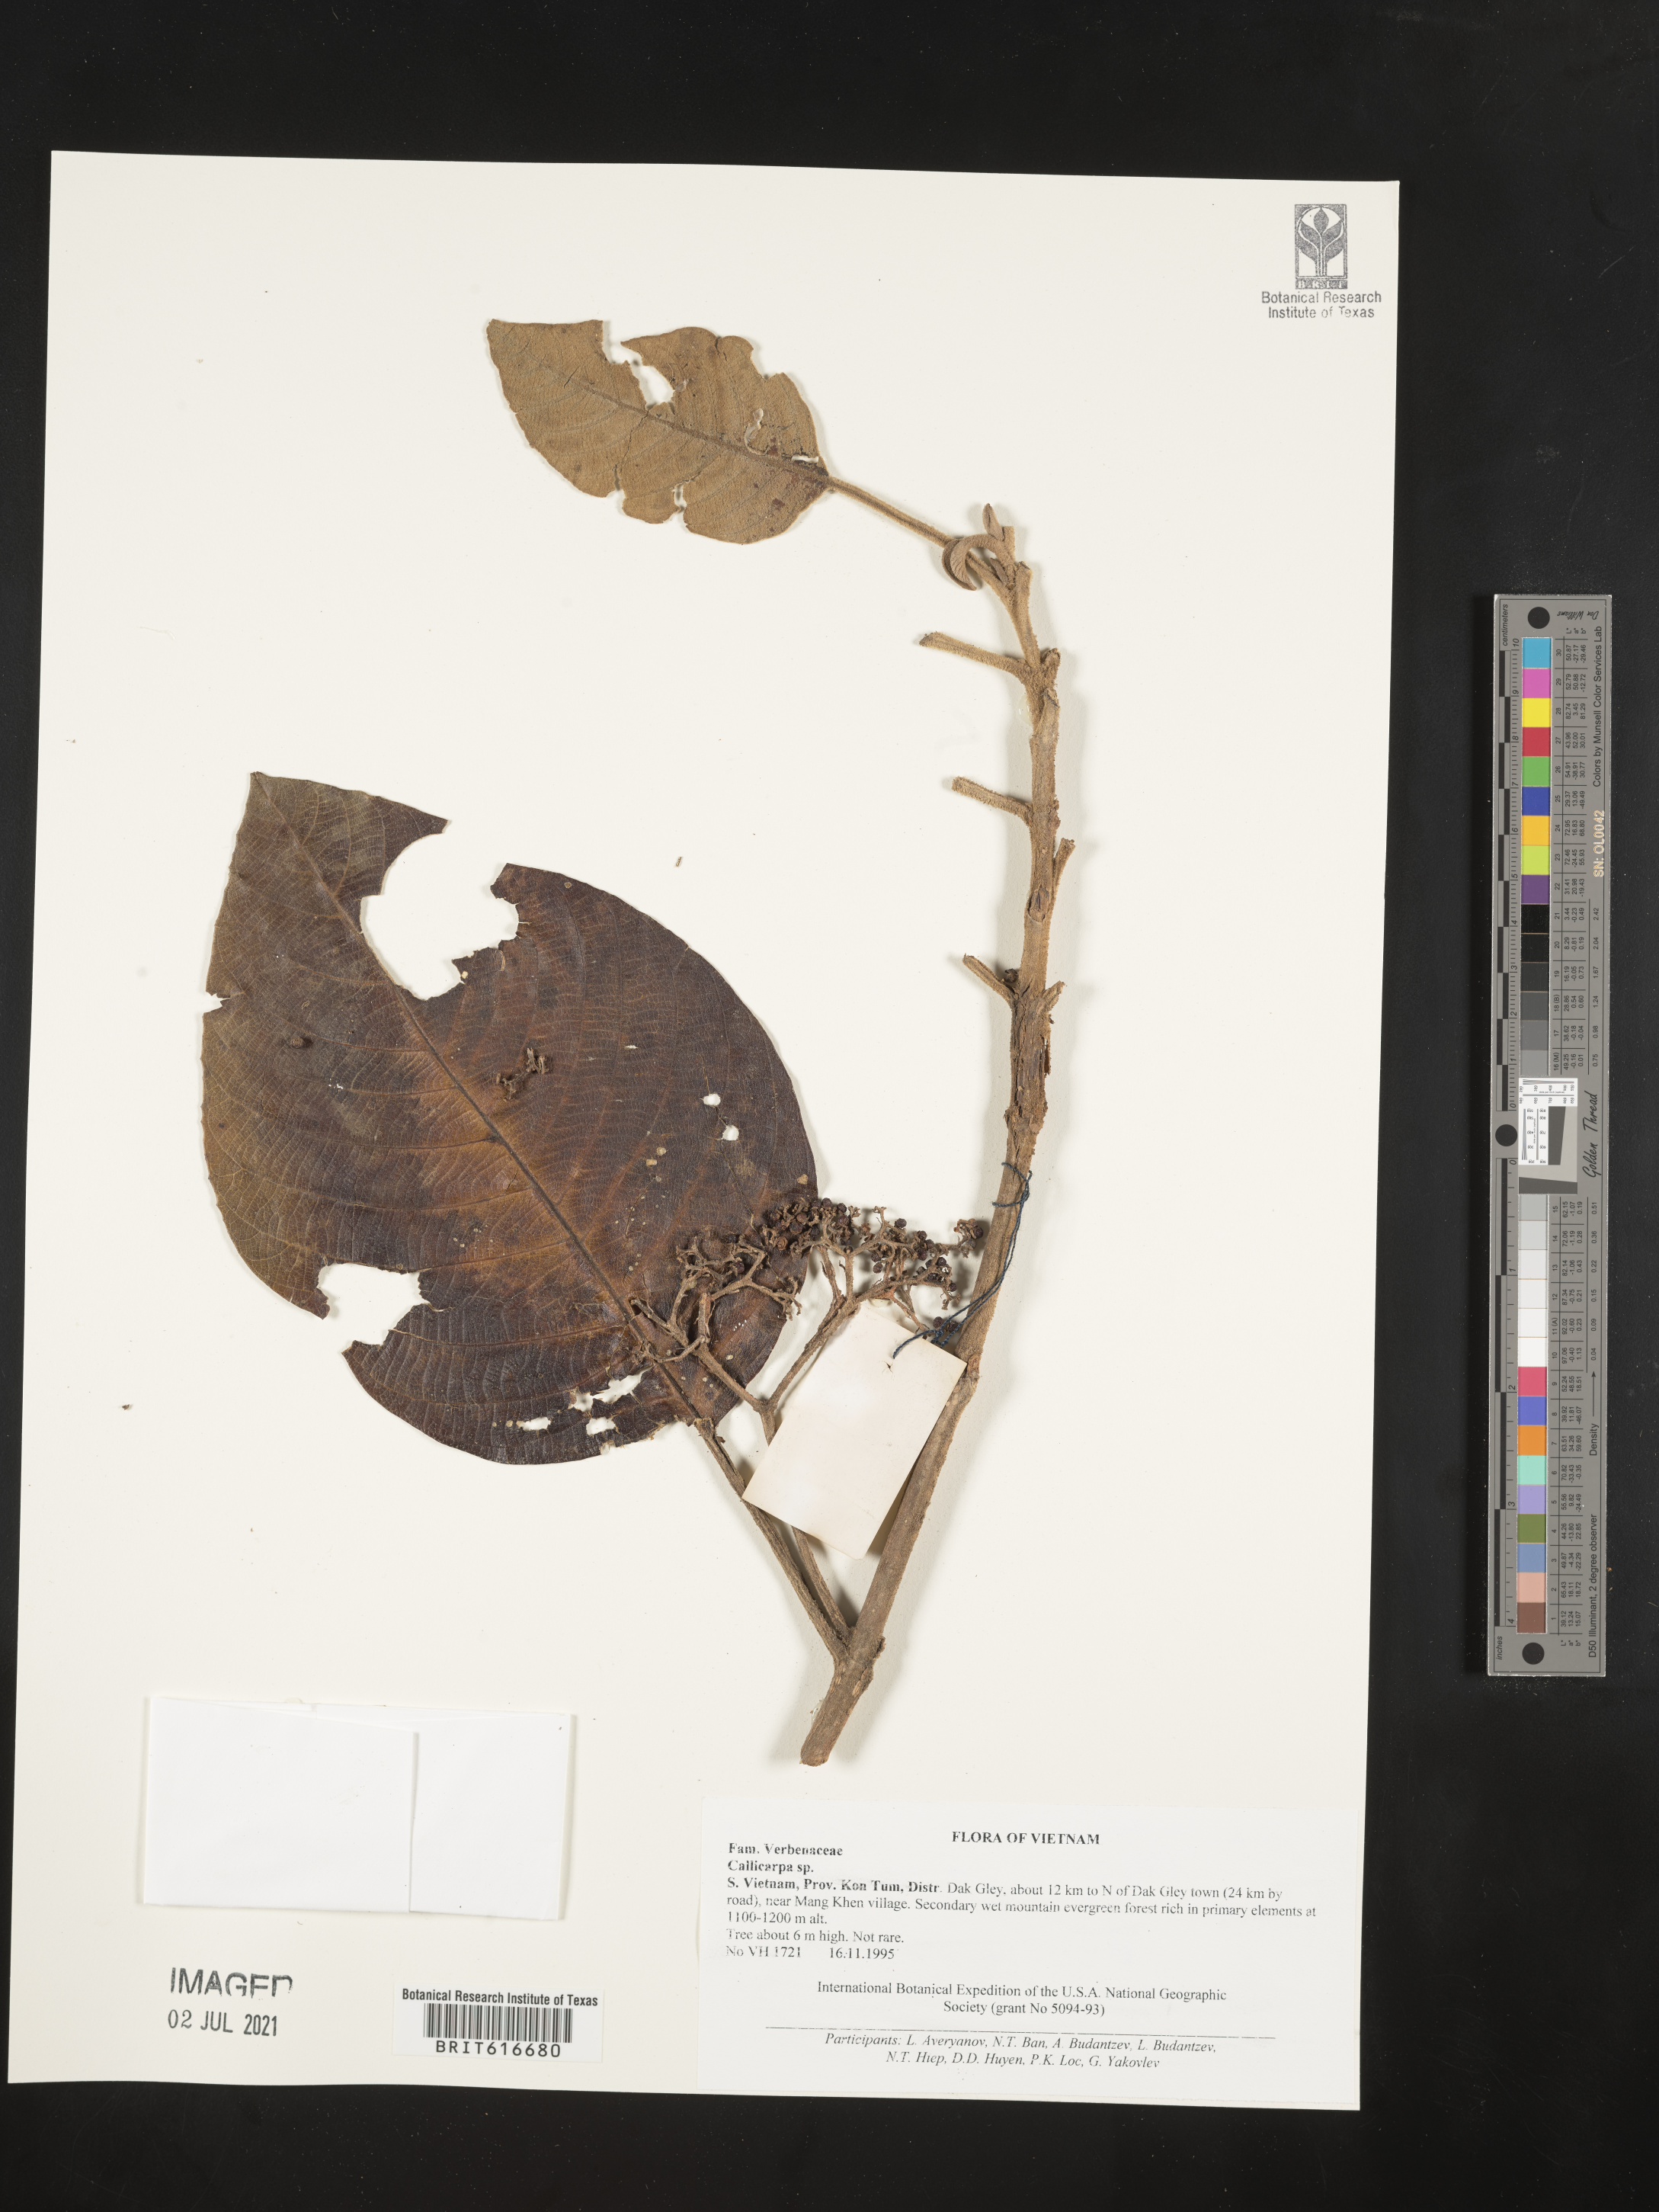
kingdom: Plantae
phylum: Tracheophyta
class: Magnoliopsida
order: Lamiales
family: Lamiaceae
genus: Callicarpa
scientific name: Callicarpa
